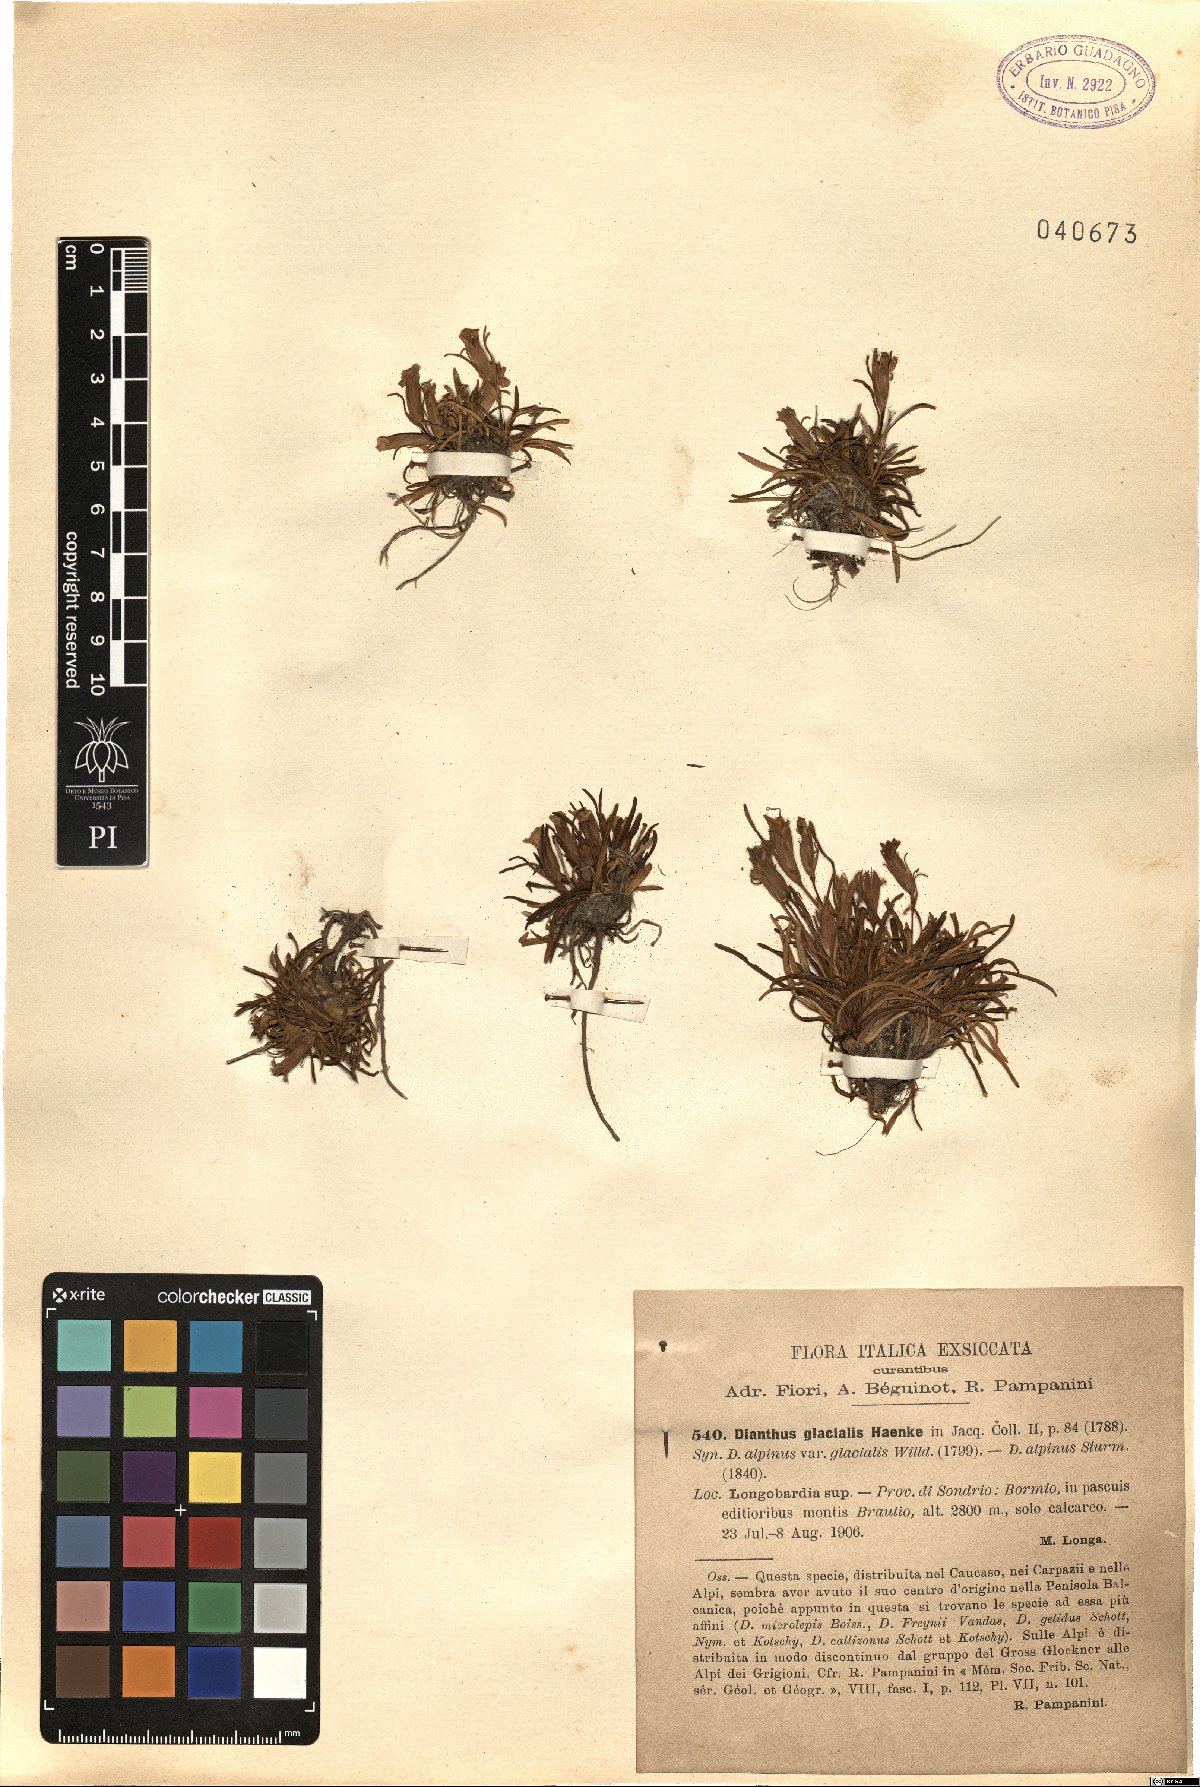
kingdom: Plantae
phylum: Tracheophyta
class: Magnoliopsida
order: Caryophyllales
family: Caryophyllaceae
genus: Dianthus
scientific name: Dianthus glacialis
